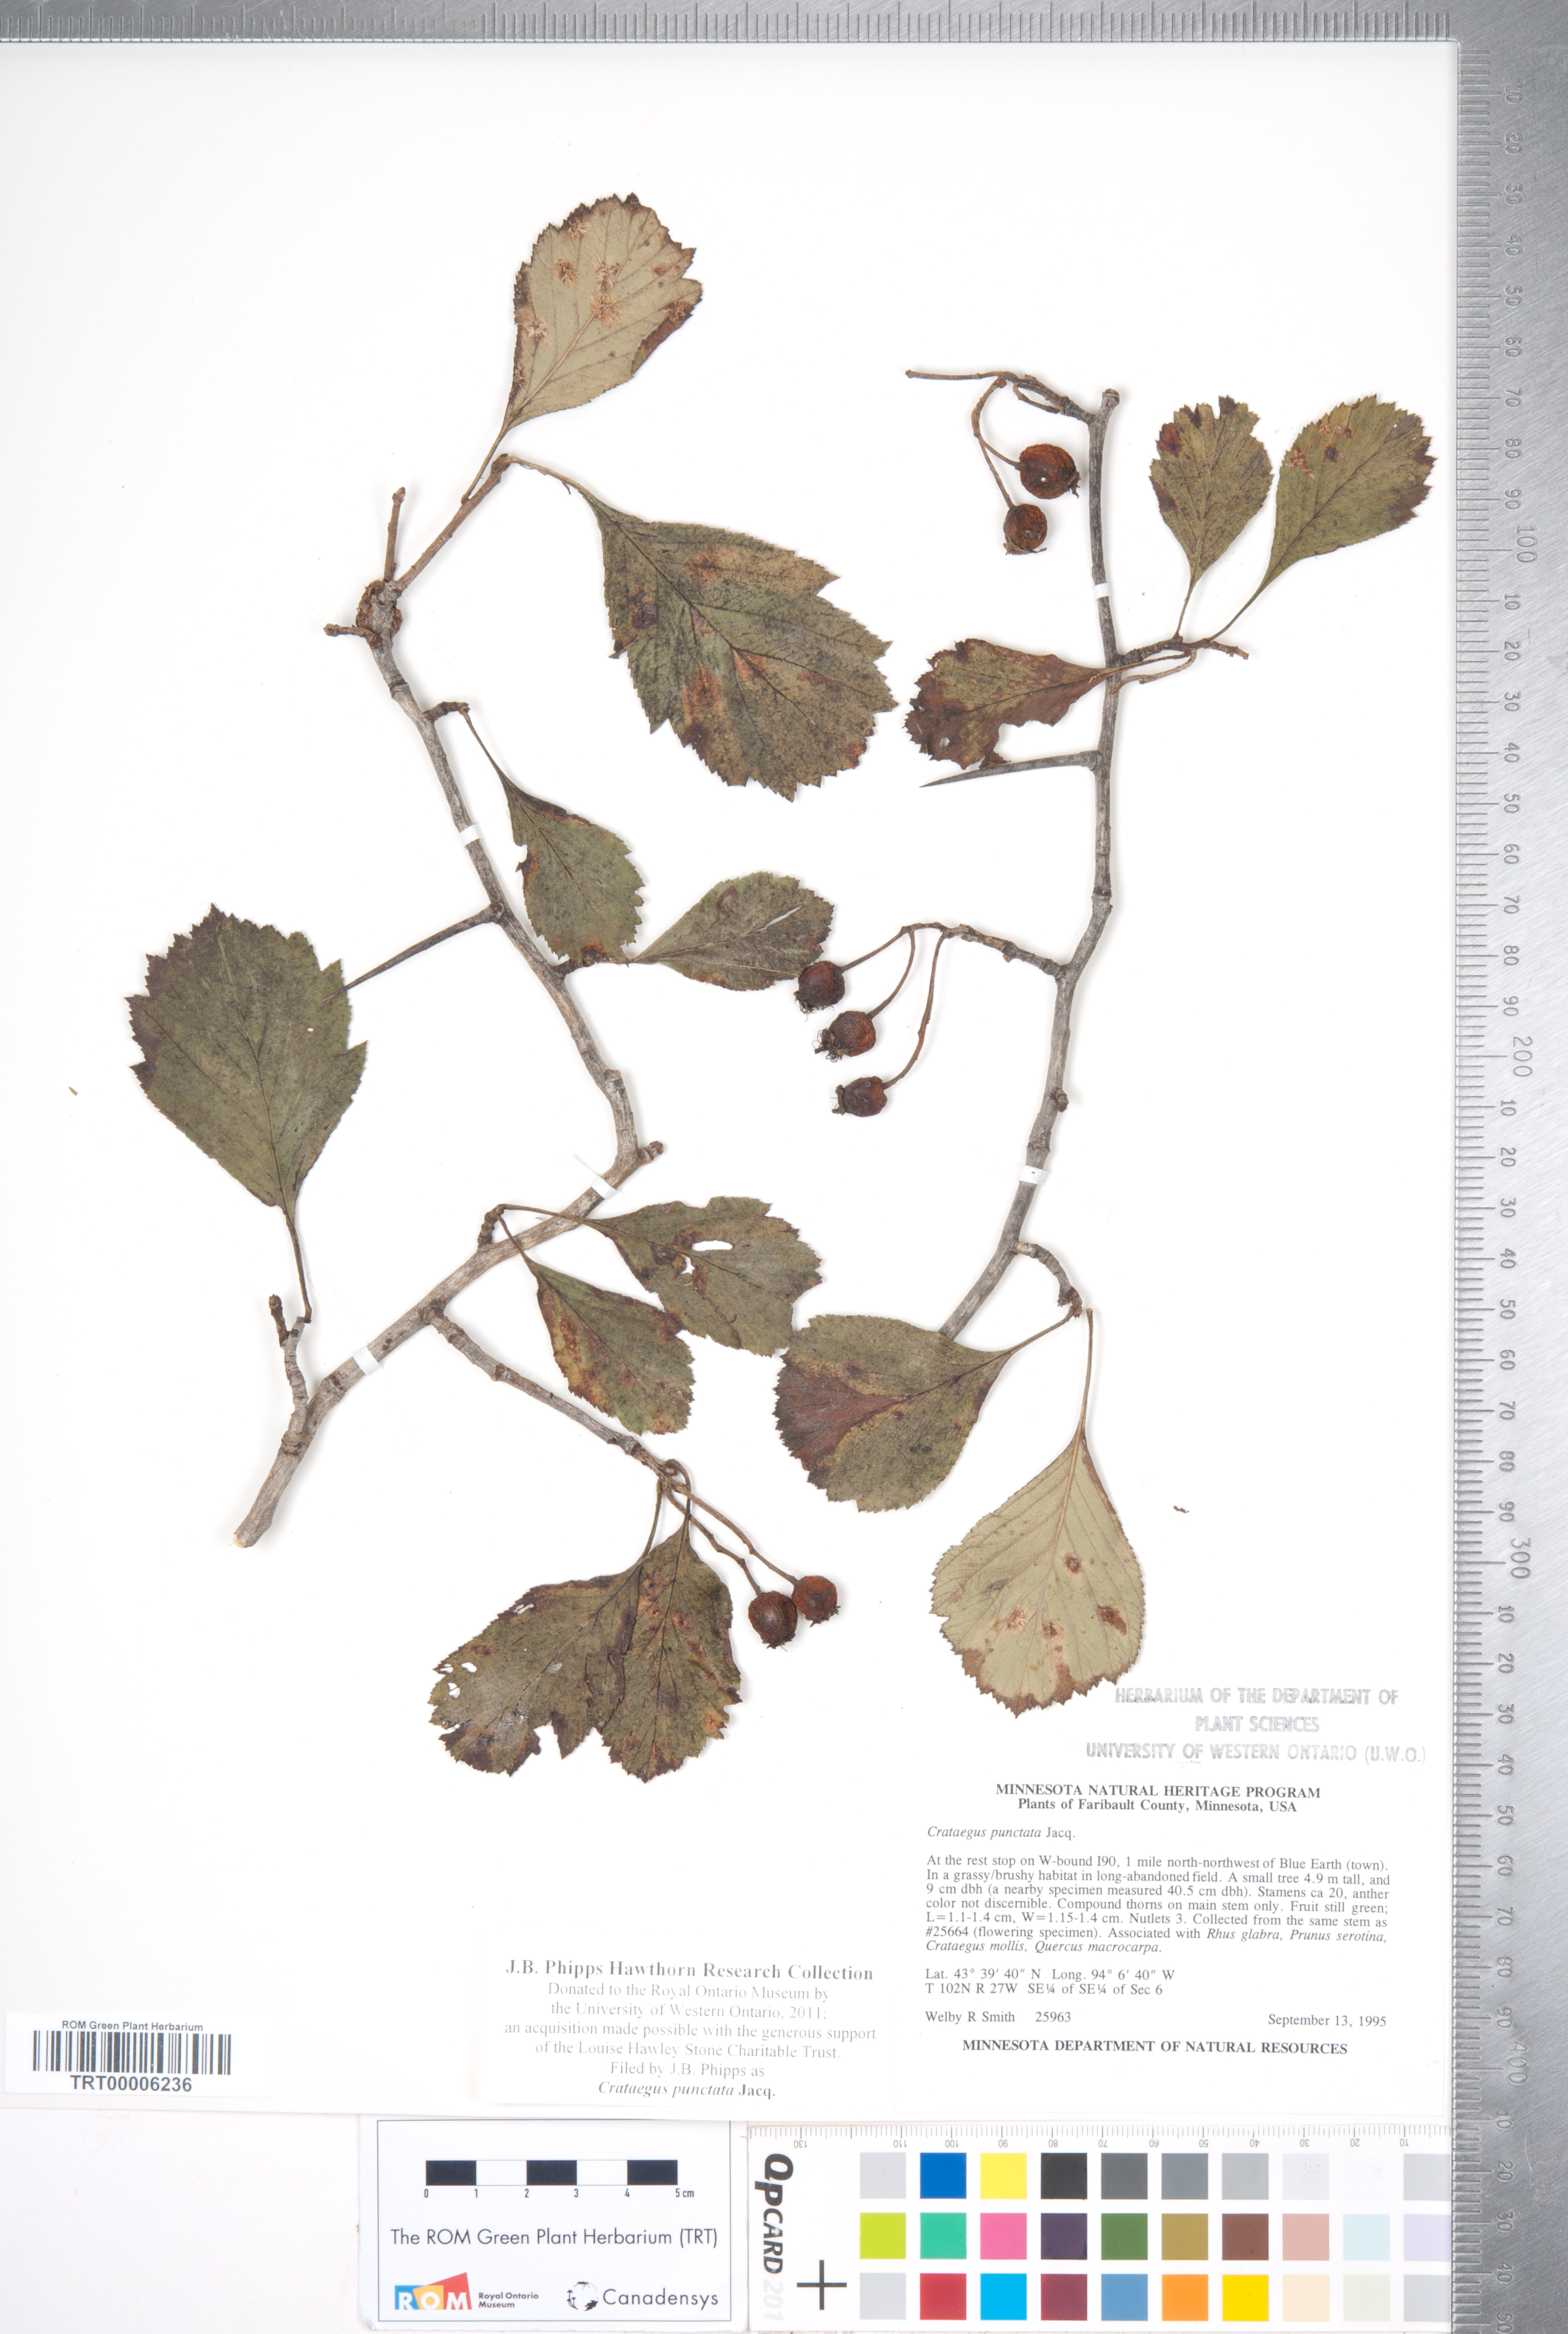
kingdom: Plantae
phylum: Tracheophyta
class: Magnoliopsida
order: Rosales
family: Rosaceae
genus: Crataegus
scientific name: Crataegus punctata
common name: Dotted hawthorn
